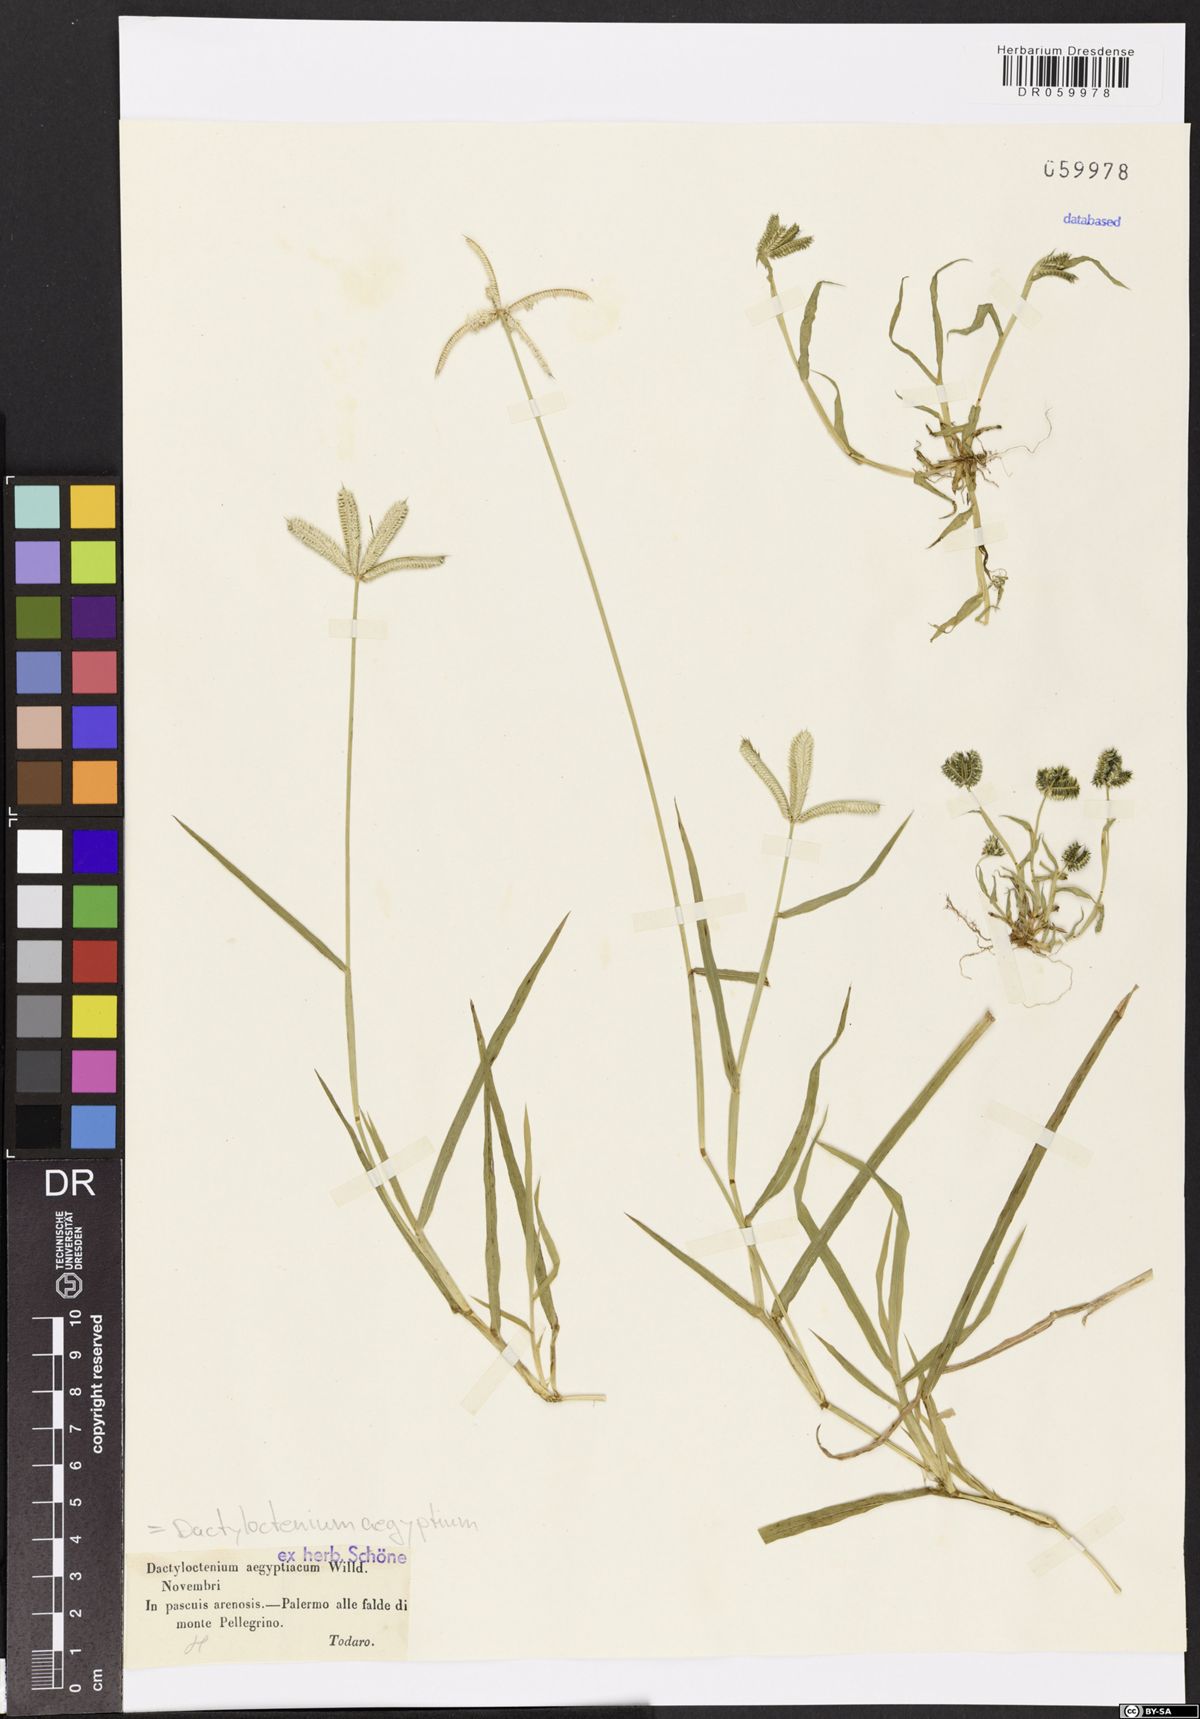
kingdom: Plantae
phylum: Tracheophyta
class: Liliopsida
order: Poales
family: Poaceae
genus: Dactyloctenium
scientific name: Dactyloctenium aegyptium
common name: Egyptian grass
